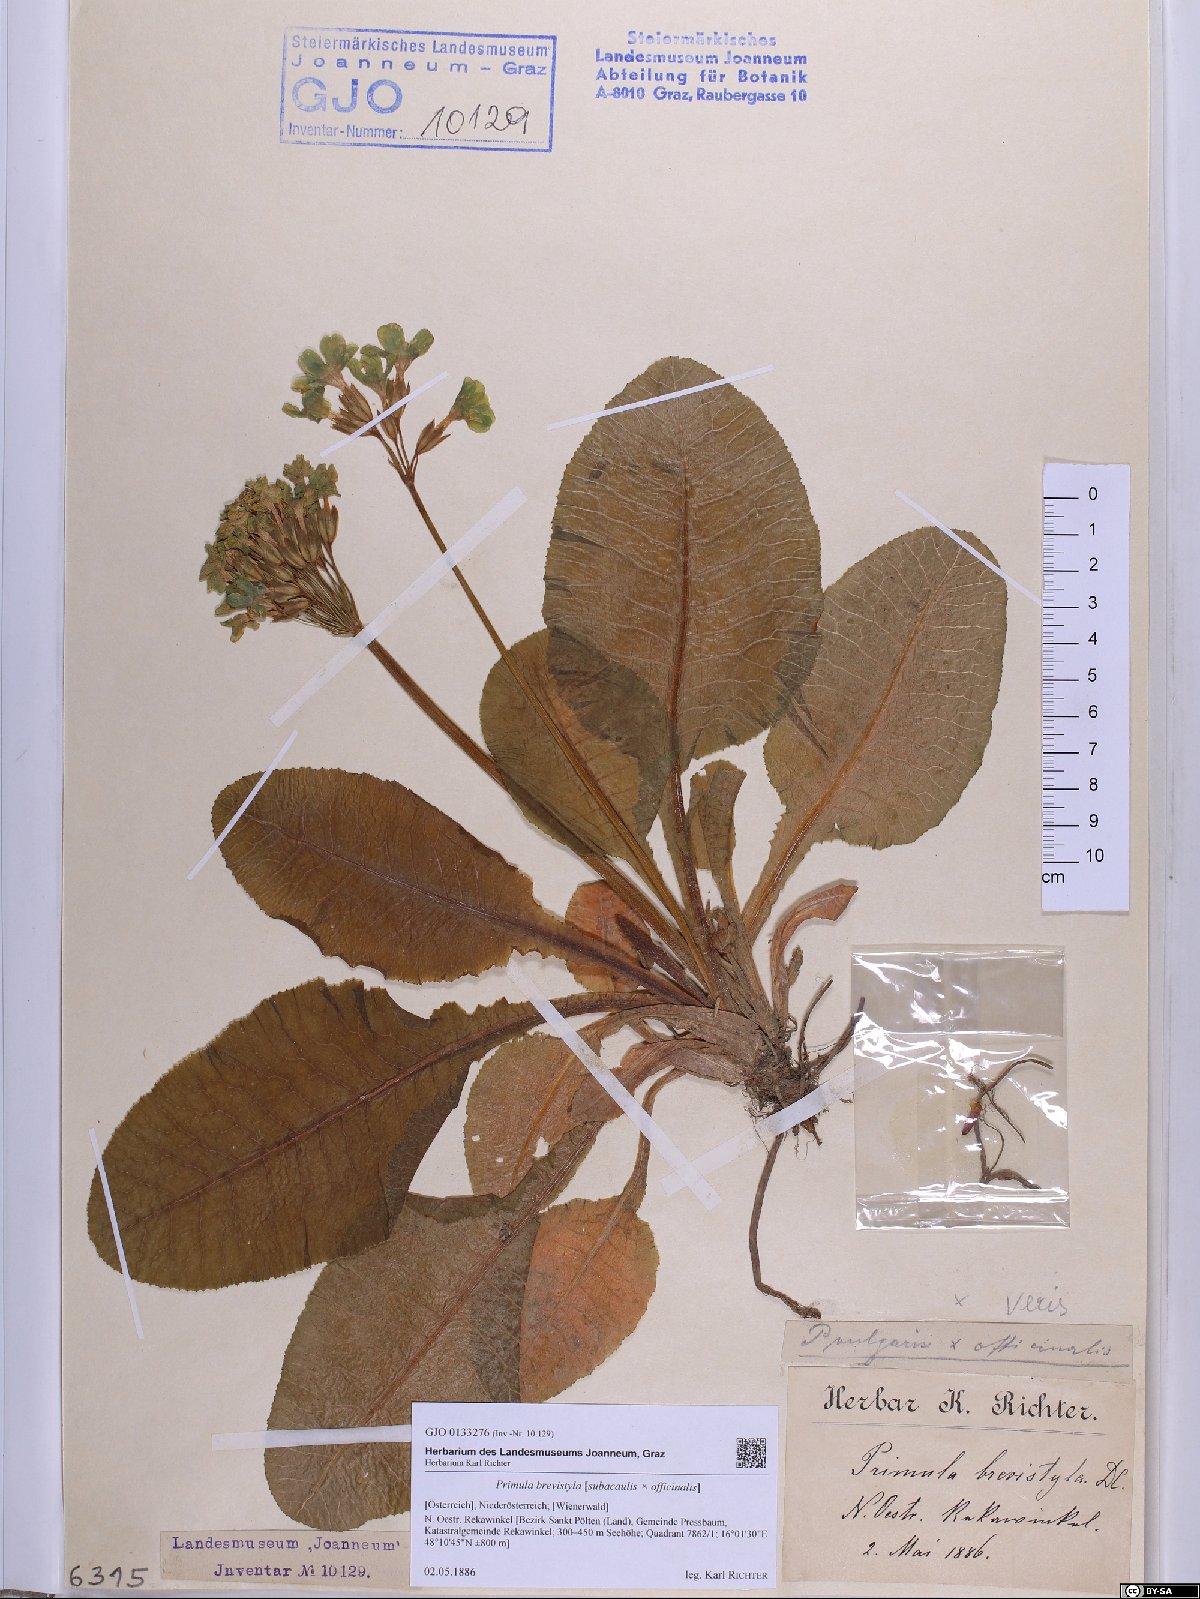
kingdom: Plantae
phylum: Tracheophyta
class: Magnoliopsida
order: Ericales
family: Primulaceae
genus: Primula
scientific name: Primula polyantha
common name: False oxlip
